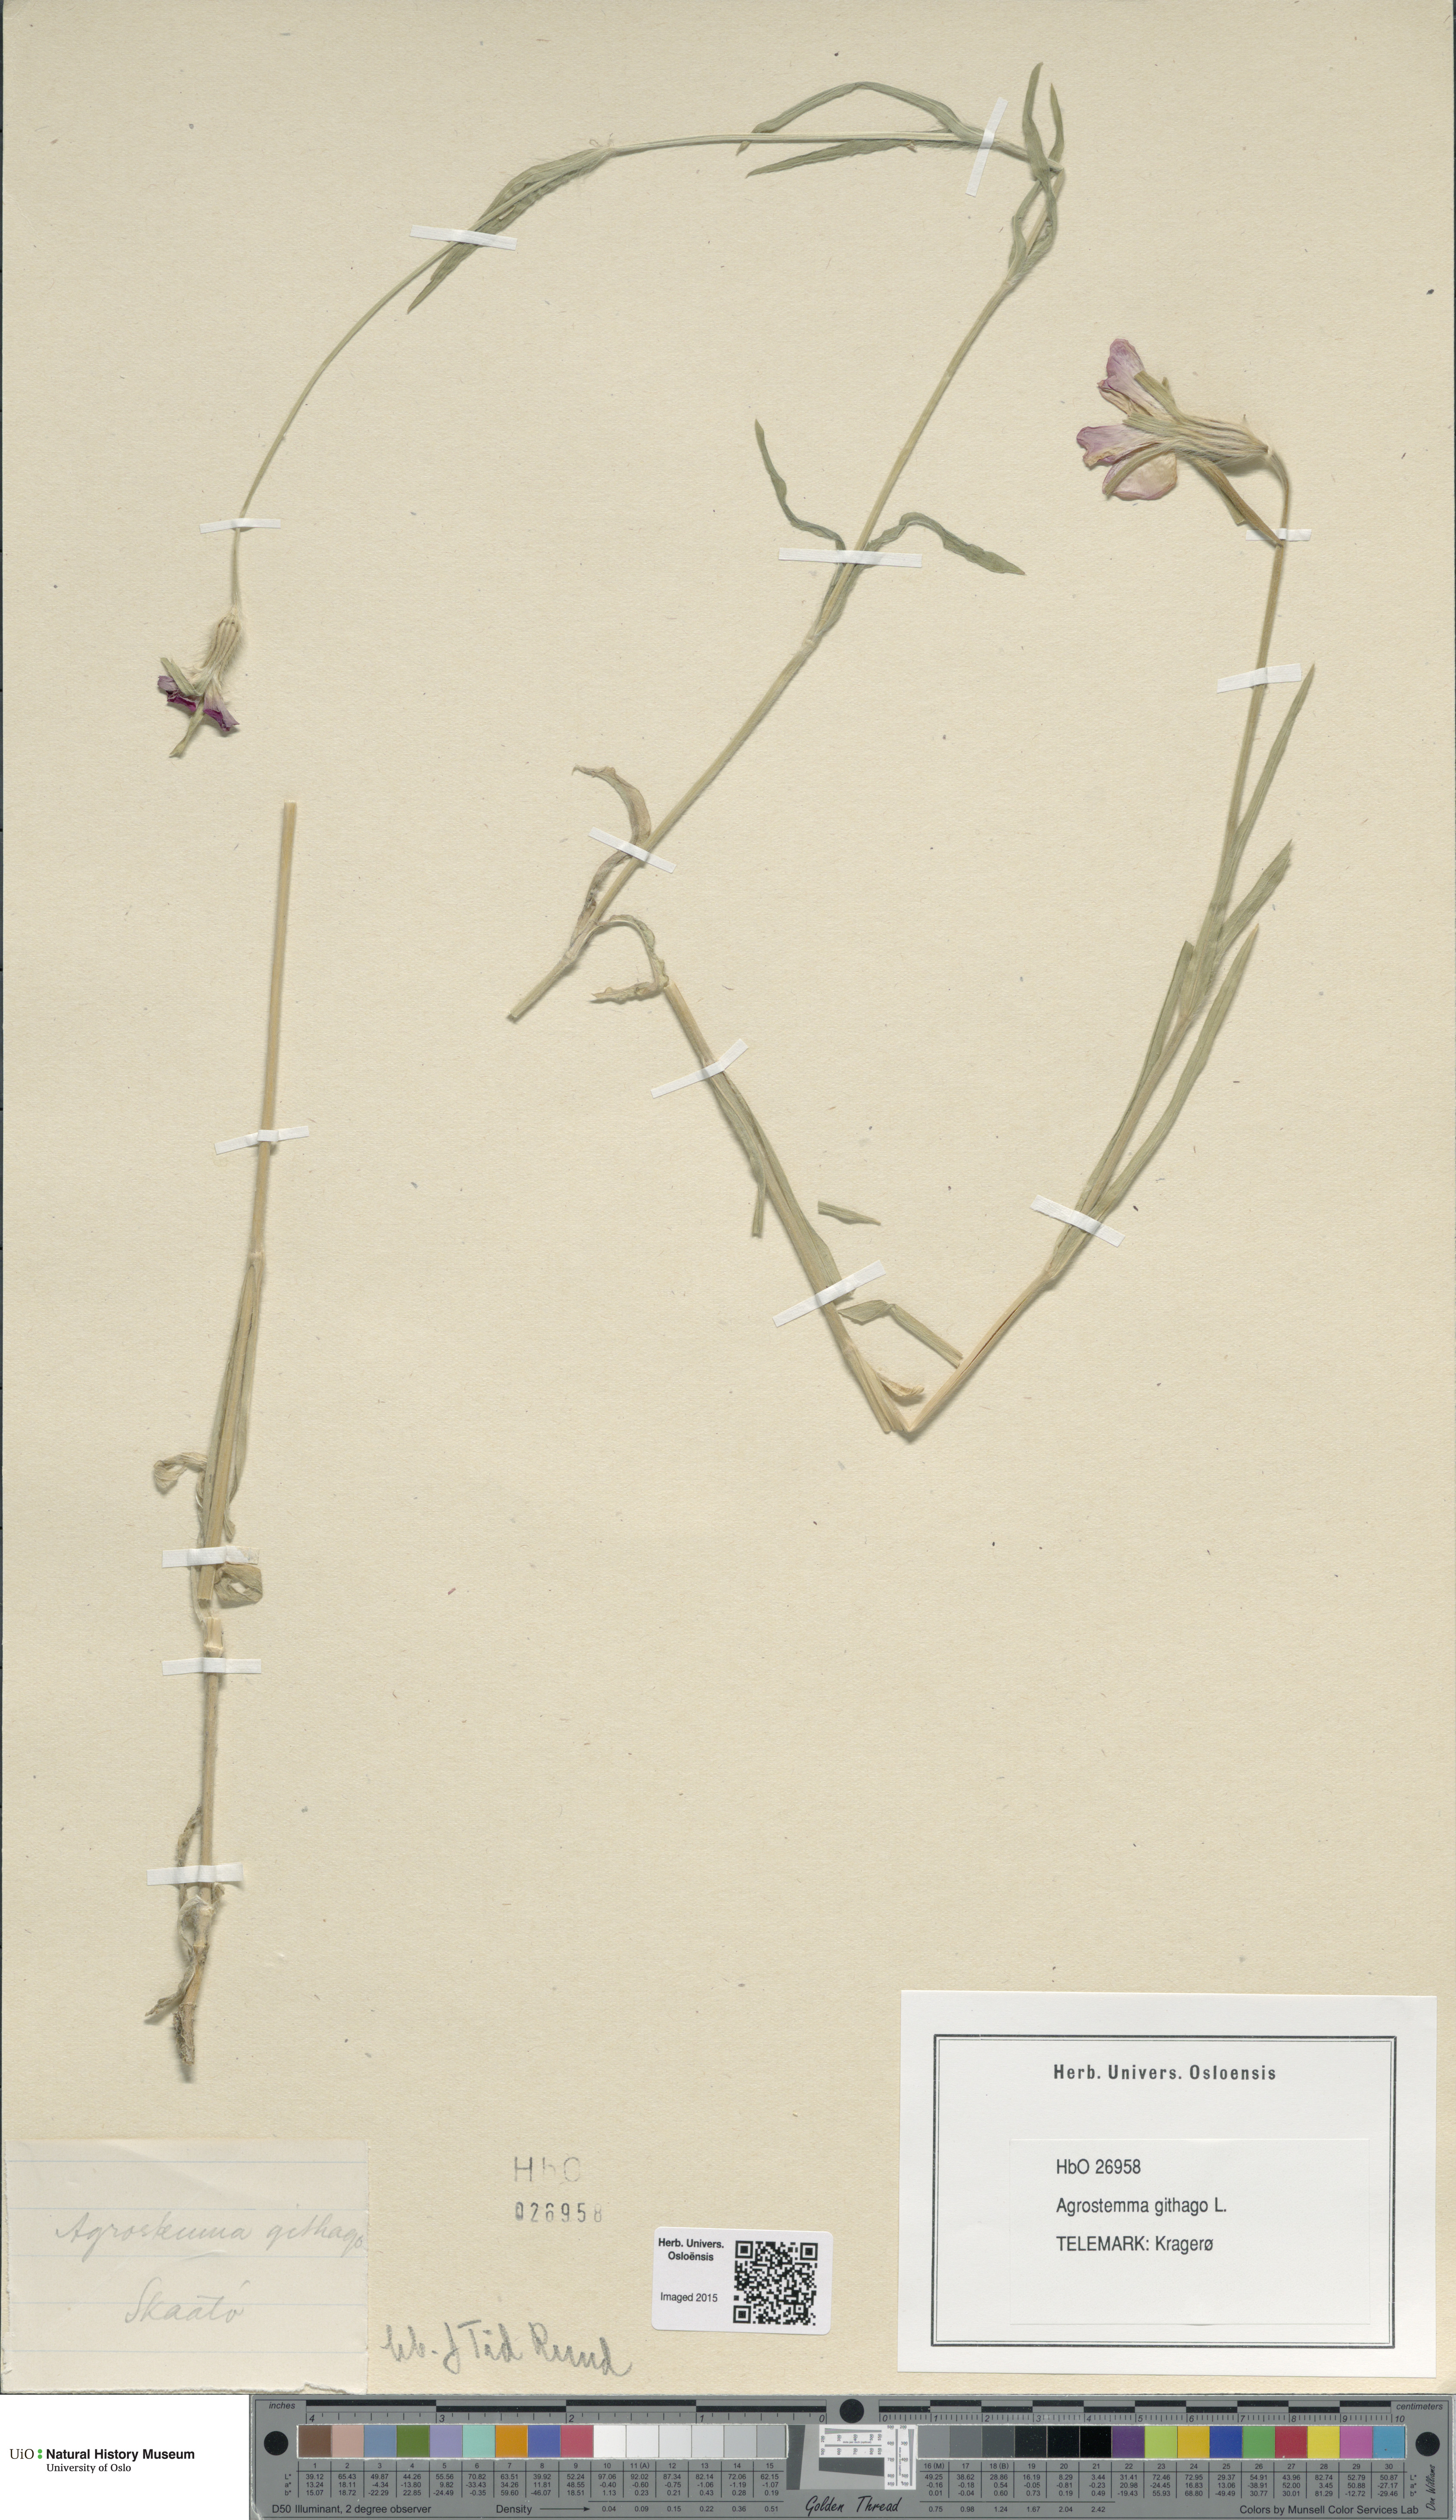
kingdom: Plantae
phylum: Tracheophyta
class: Magnoliopsida
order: Caryophyllales
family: Caryophyllaceae
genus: Agrostemma
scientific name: Agrostemma githago
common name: Common corncockle
